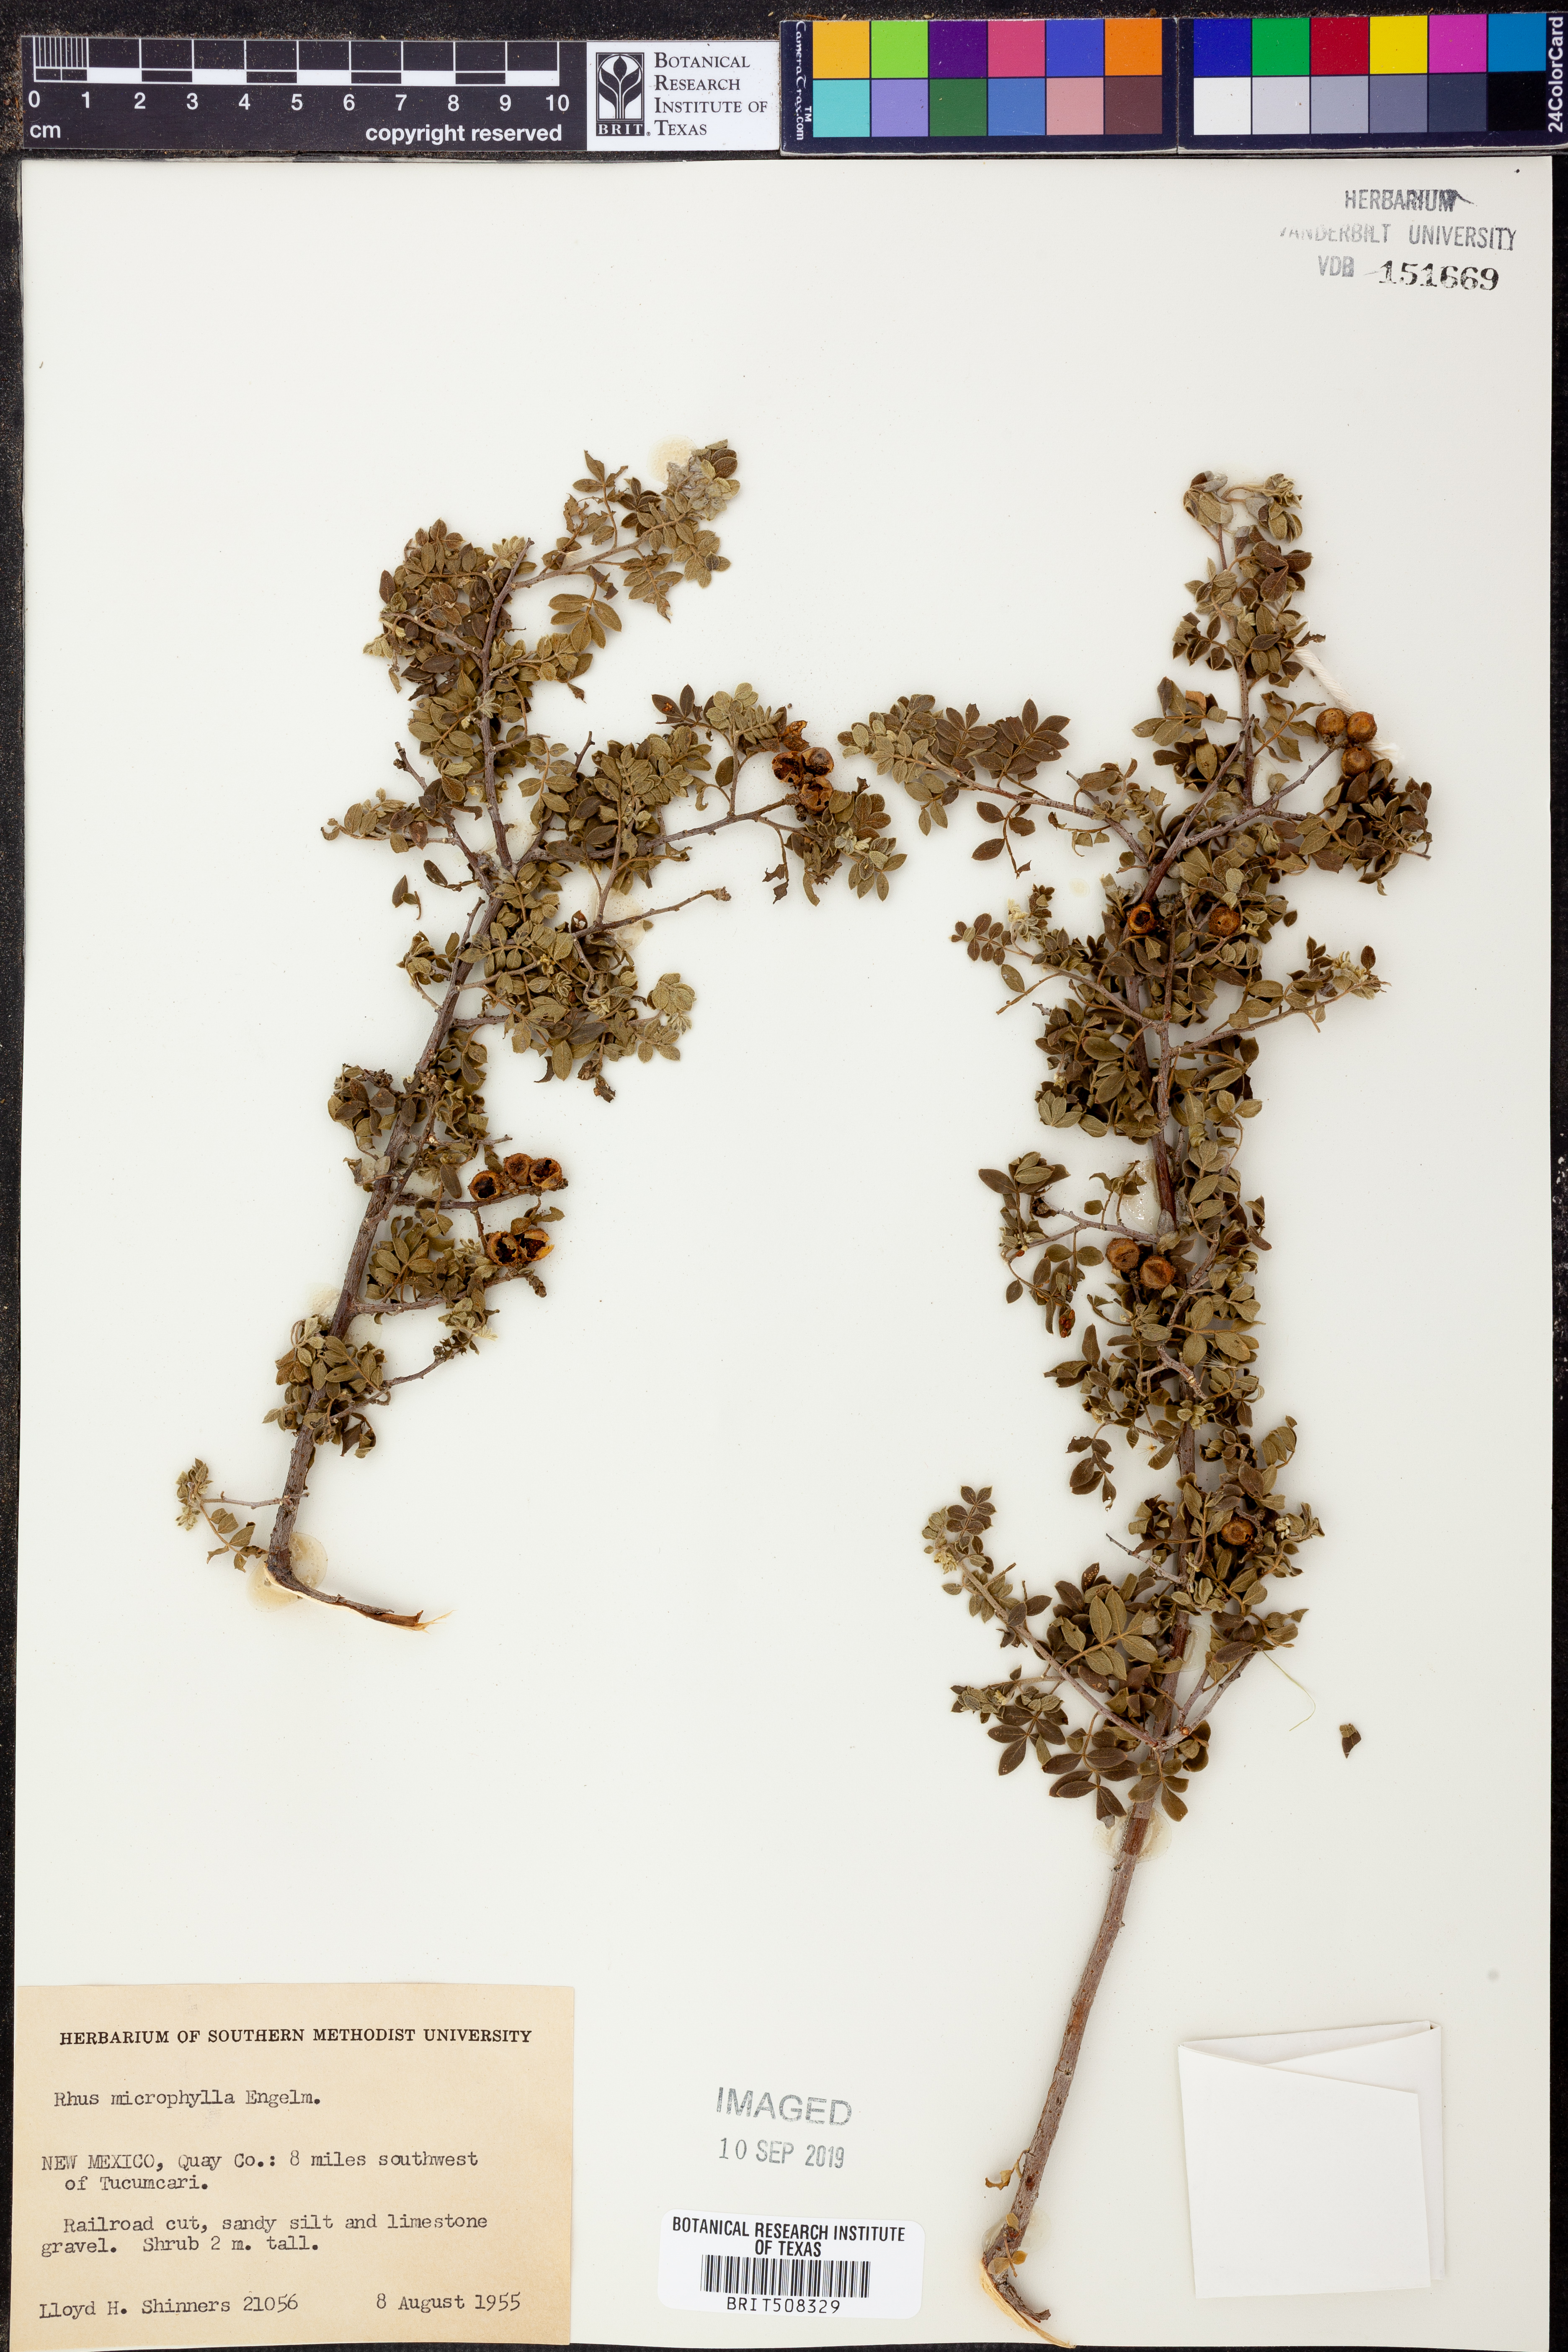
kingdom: Plantae
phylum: Tracheophyta
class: Magnoliopsida
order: Sapindales
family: Anacardiaceae
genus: Rhus
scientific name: Rhus microphylla
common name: Desert sumac
